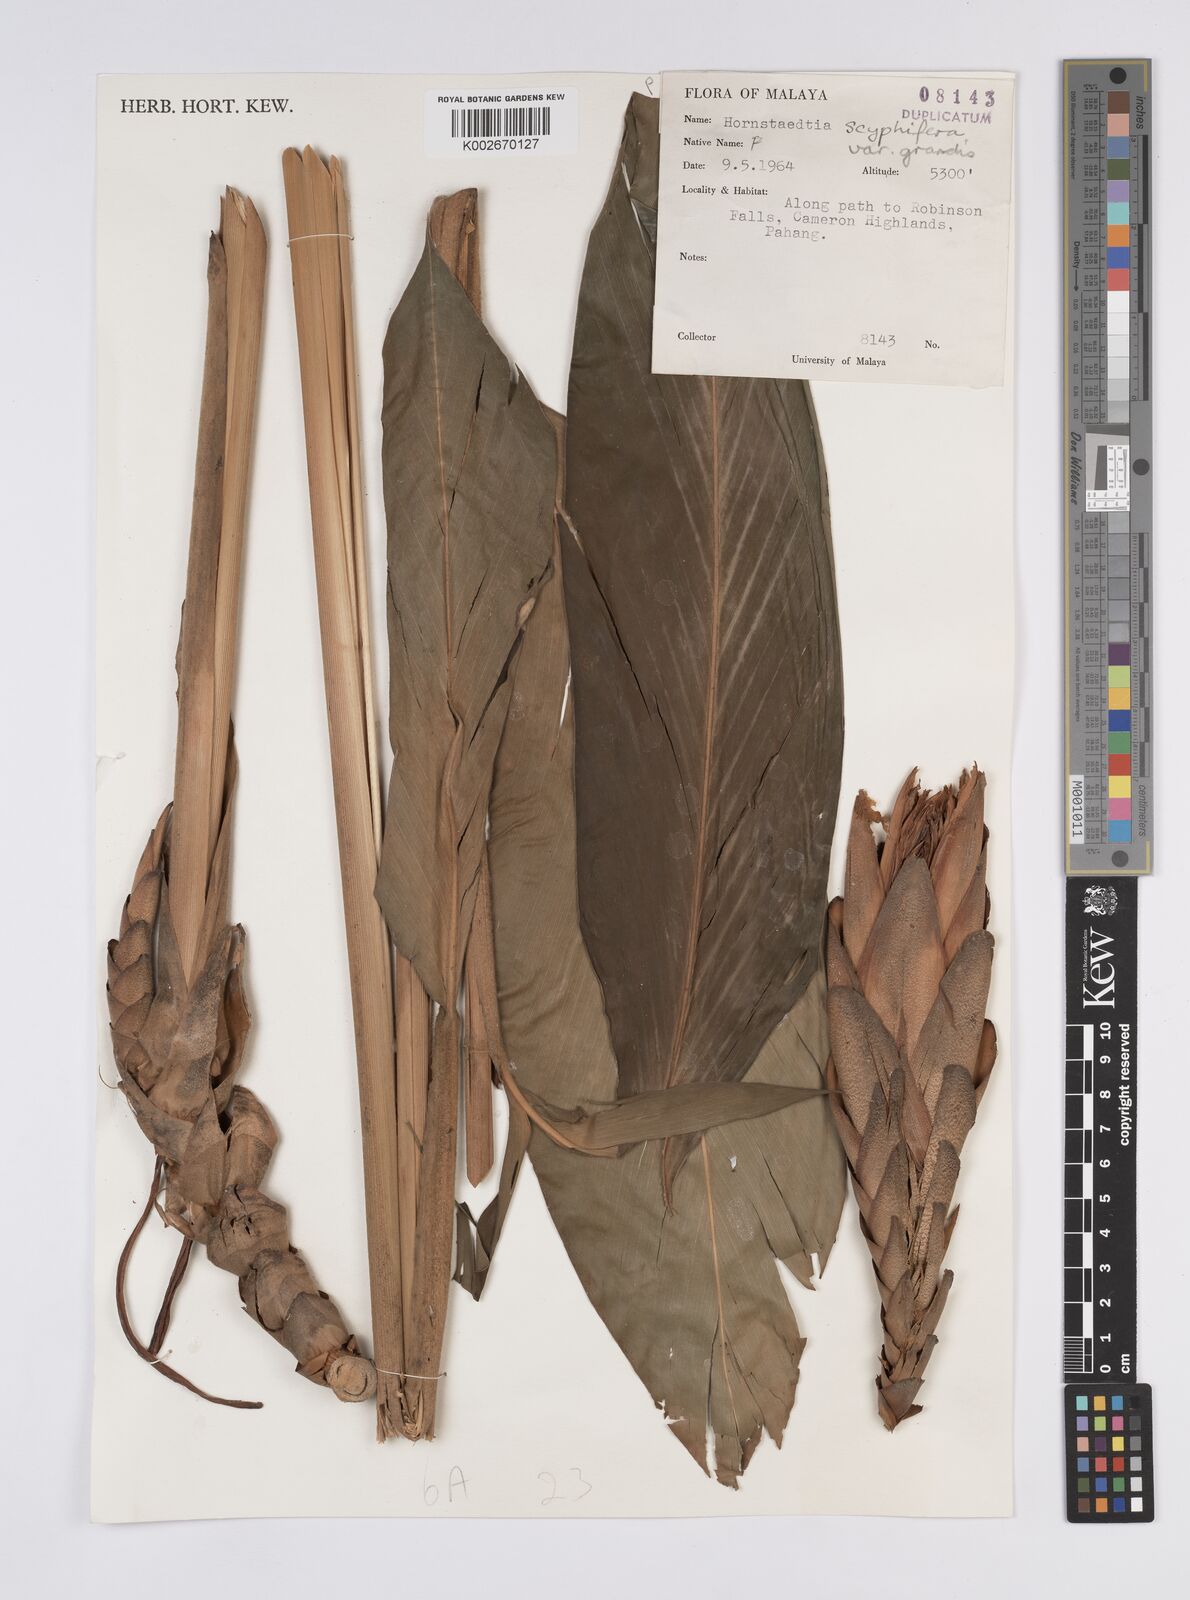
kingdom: Plantae
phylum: Tracheophyta
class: Liliopsida
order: Zingiberales
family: Zingiberaceae
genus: Hornstedtia
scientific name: Hornstedtia scyphifera
